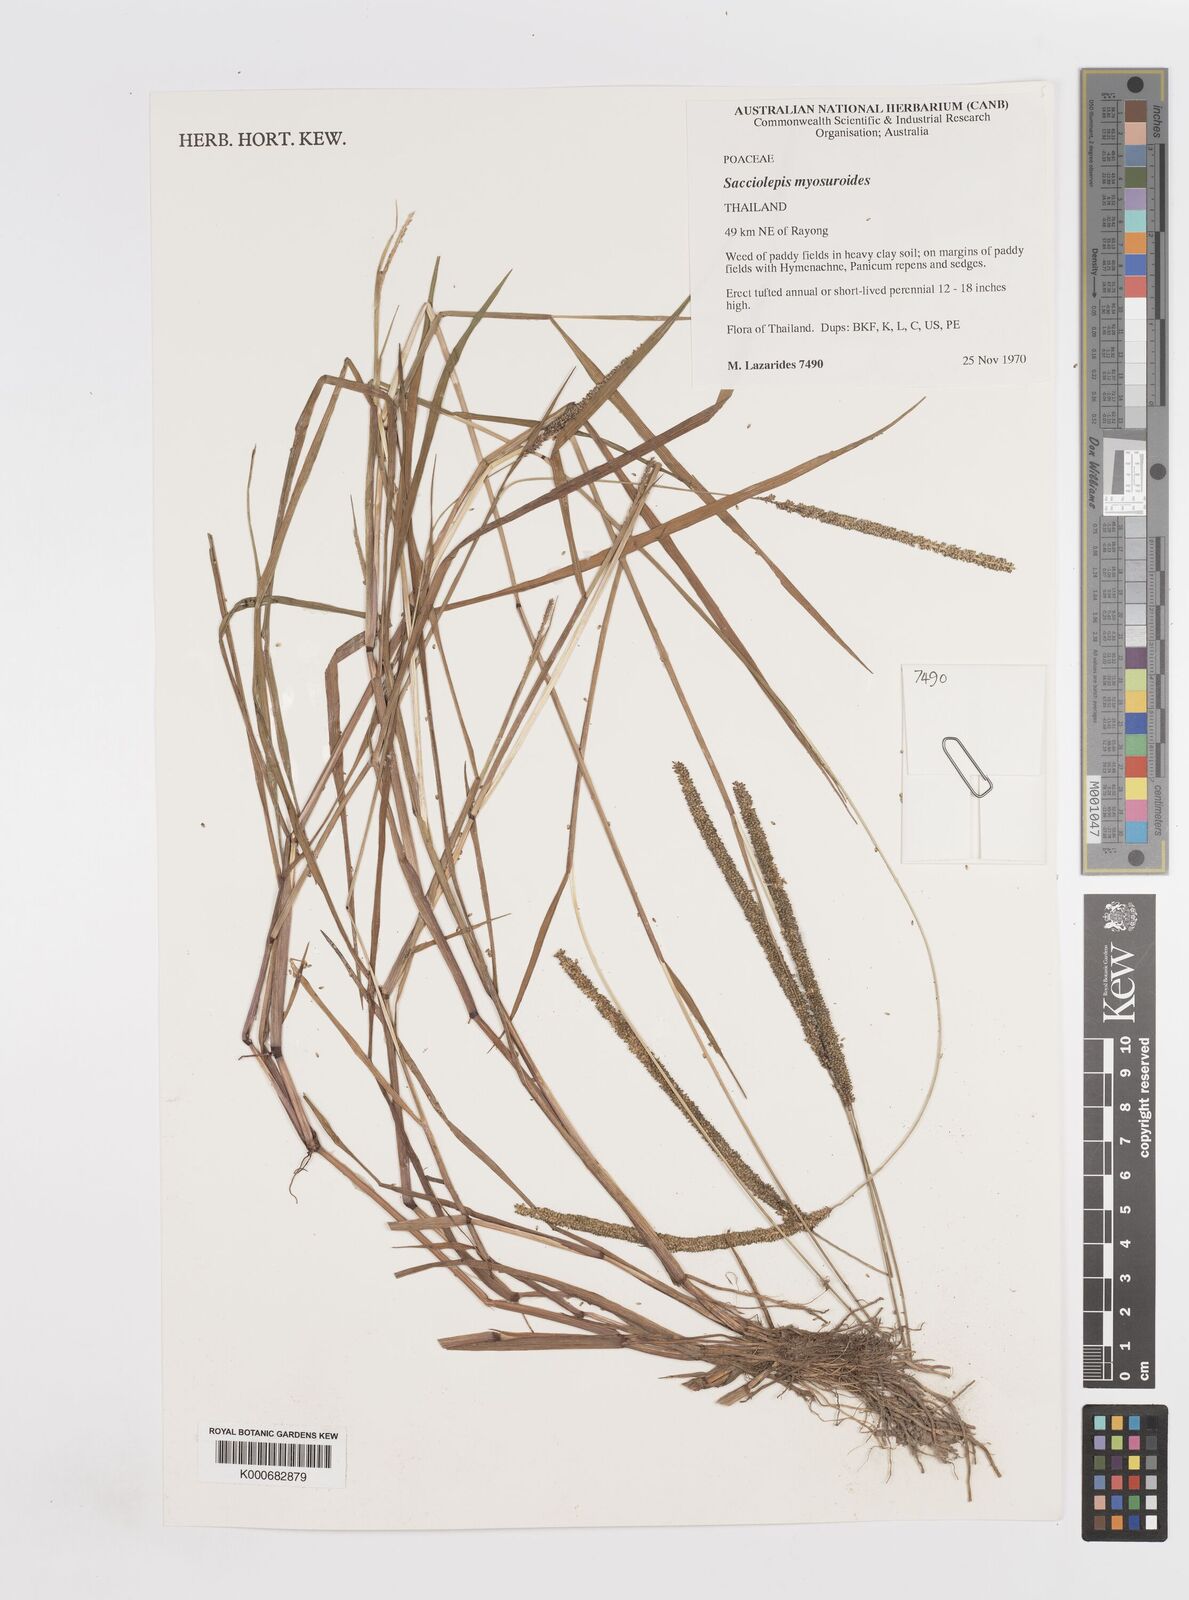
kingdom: Plantae
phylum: Tracheophyta
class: Liliopsida
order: Poales
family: Poaceae
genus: Sacciolepis
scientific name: Sacciolepis myosuroides
